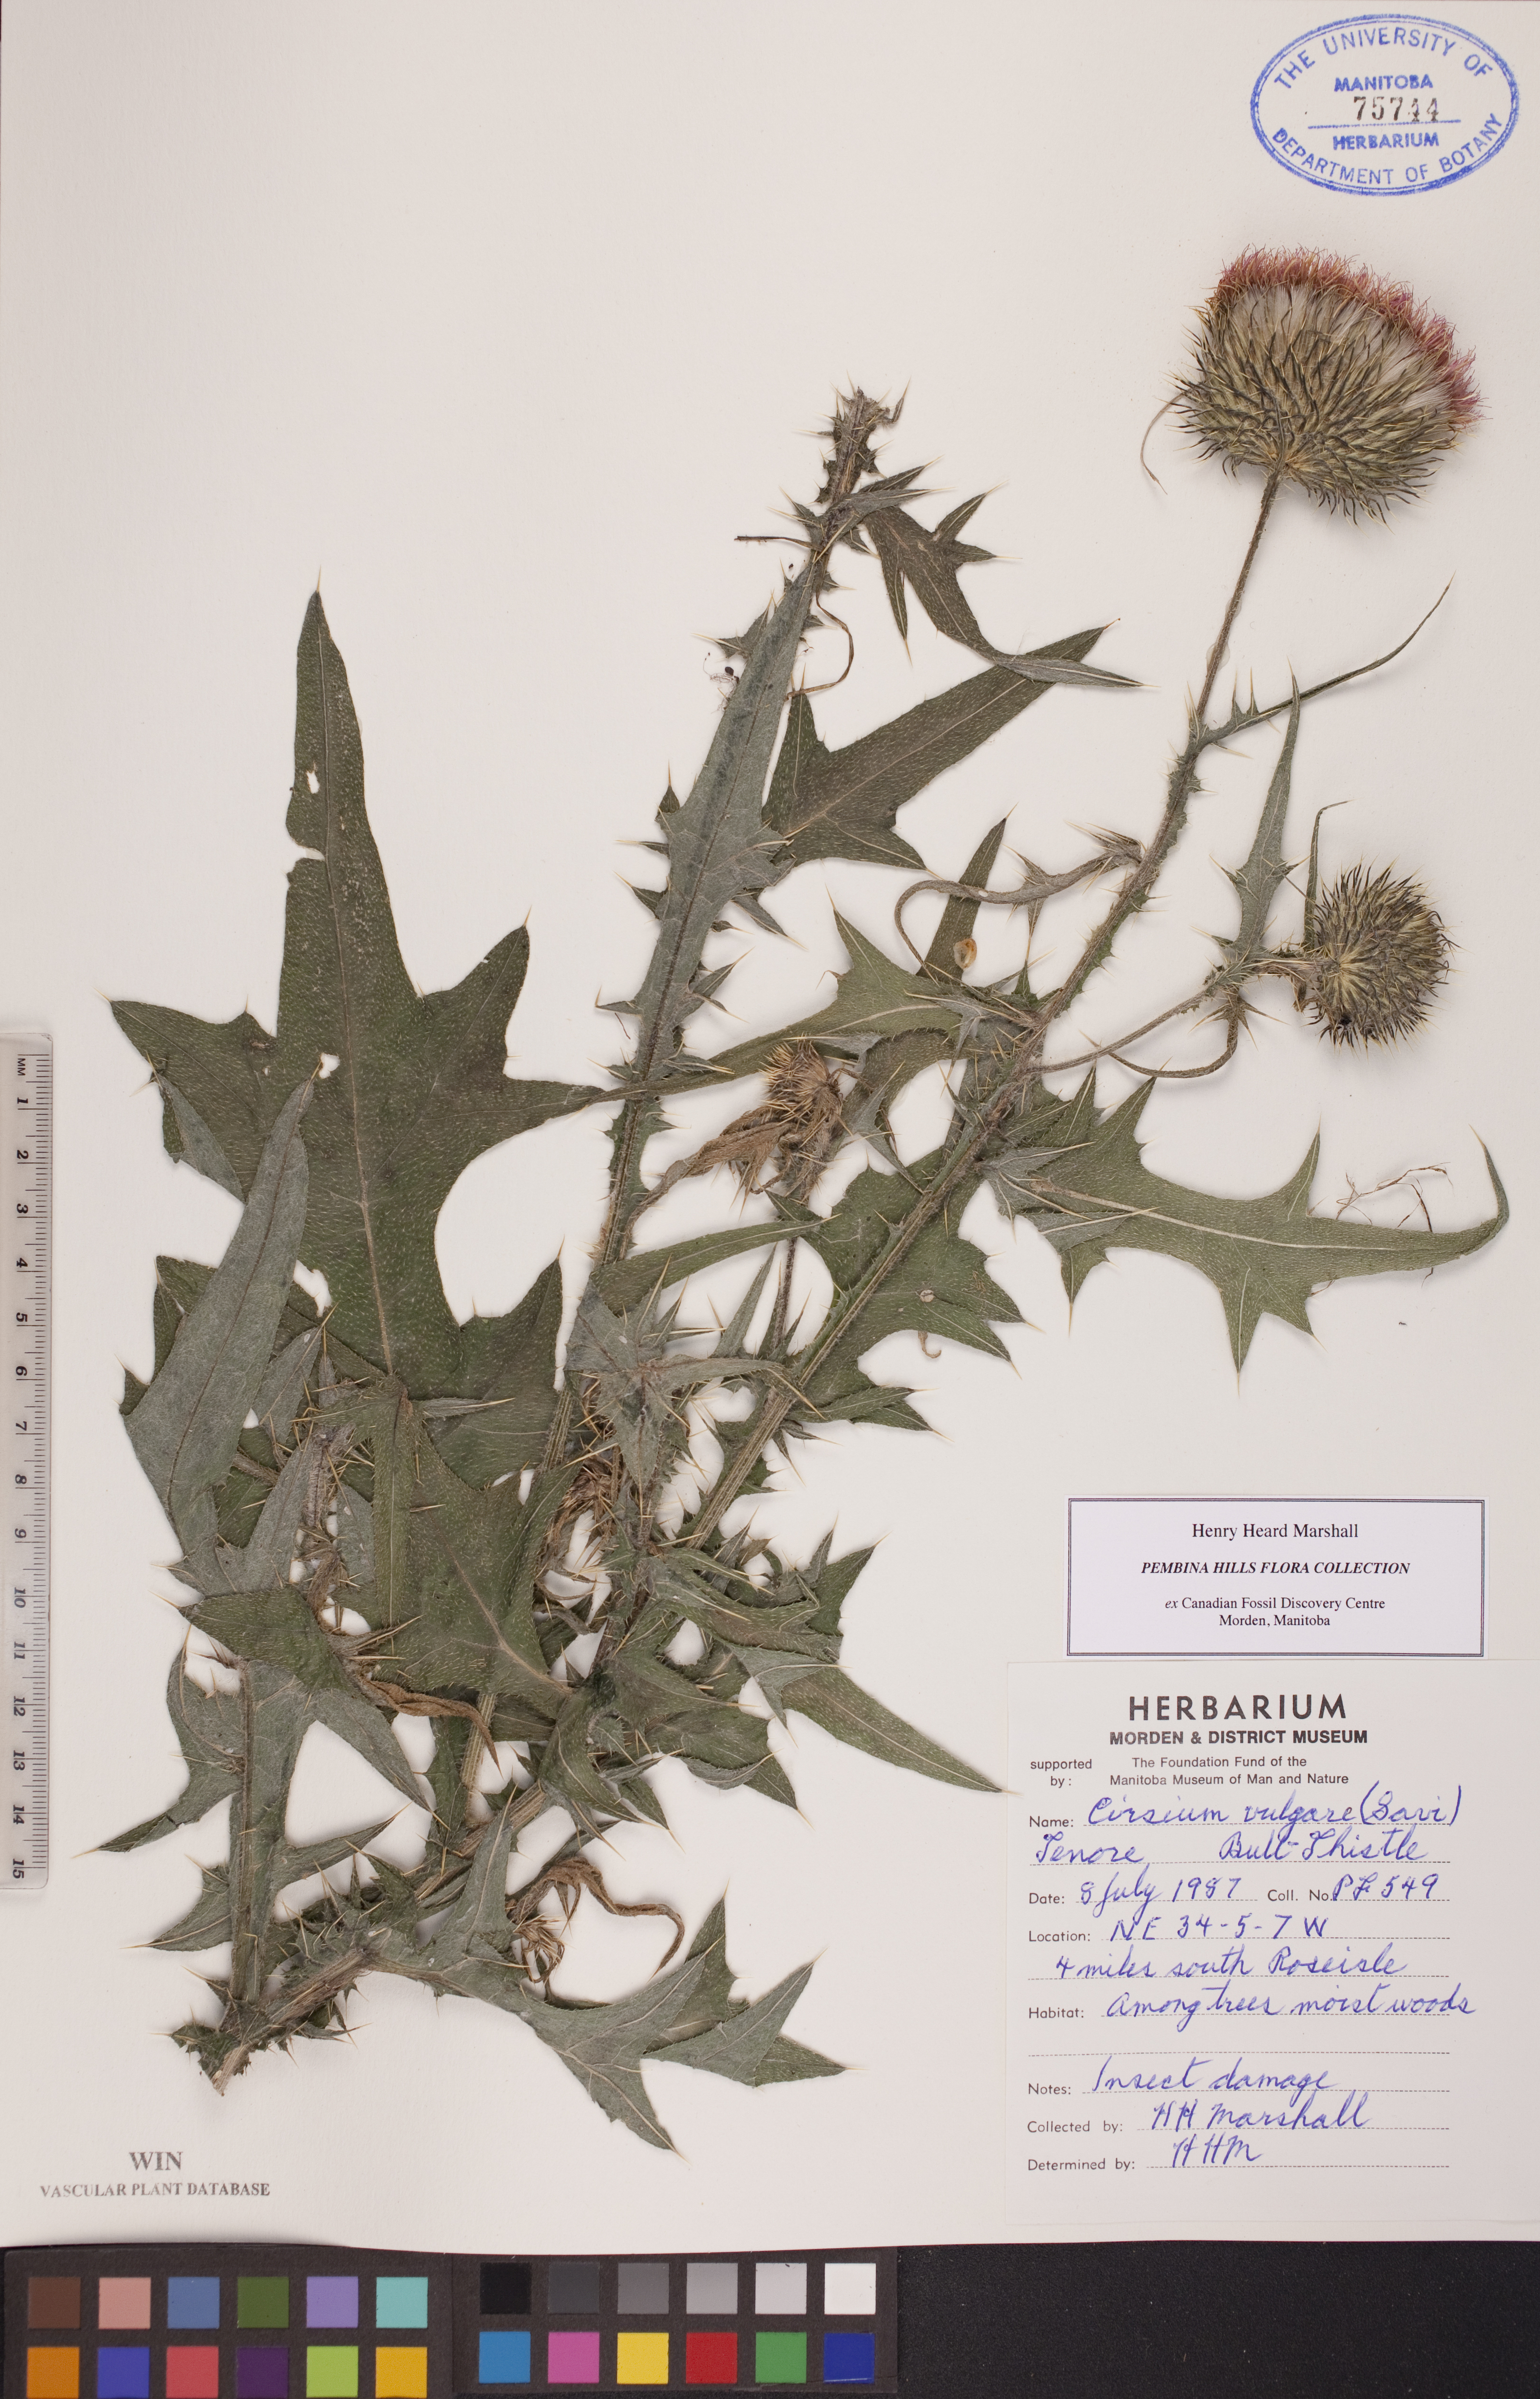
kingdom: Plantae
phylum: Tracheophyta
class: Magnoliopsida
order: Asterales
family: Asteraceae
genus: Cirsium
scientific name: Cirsium vulgare
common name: Bull thistle
